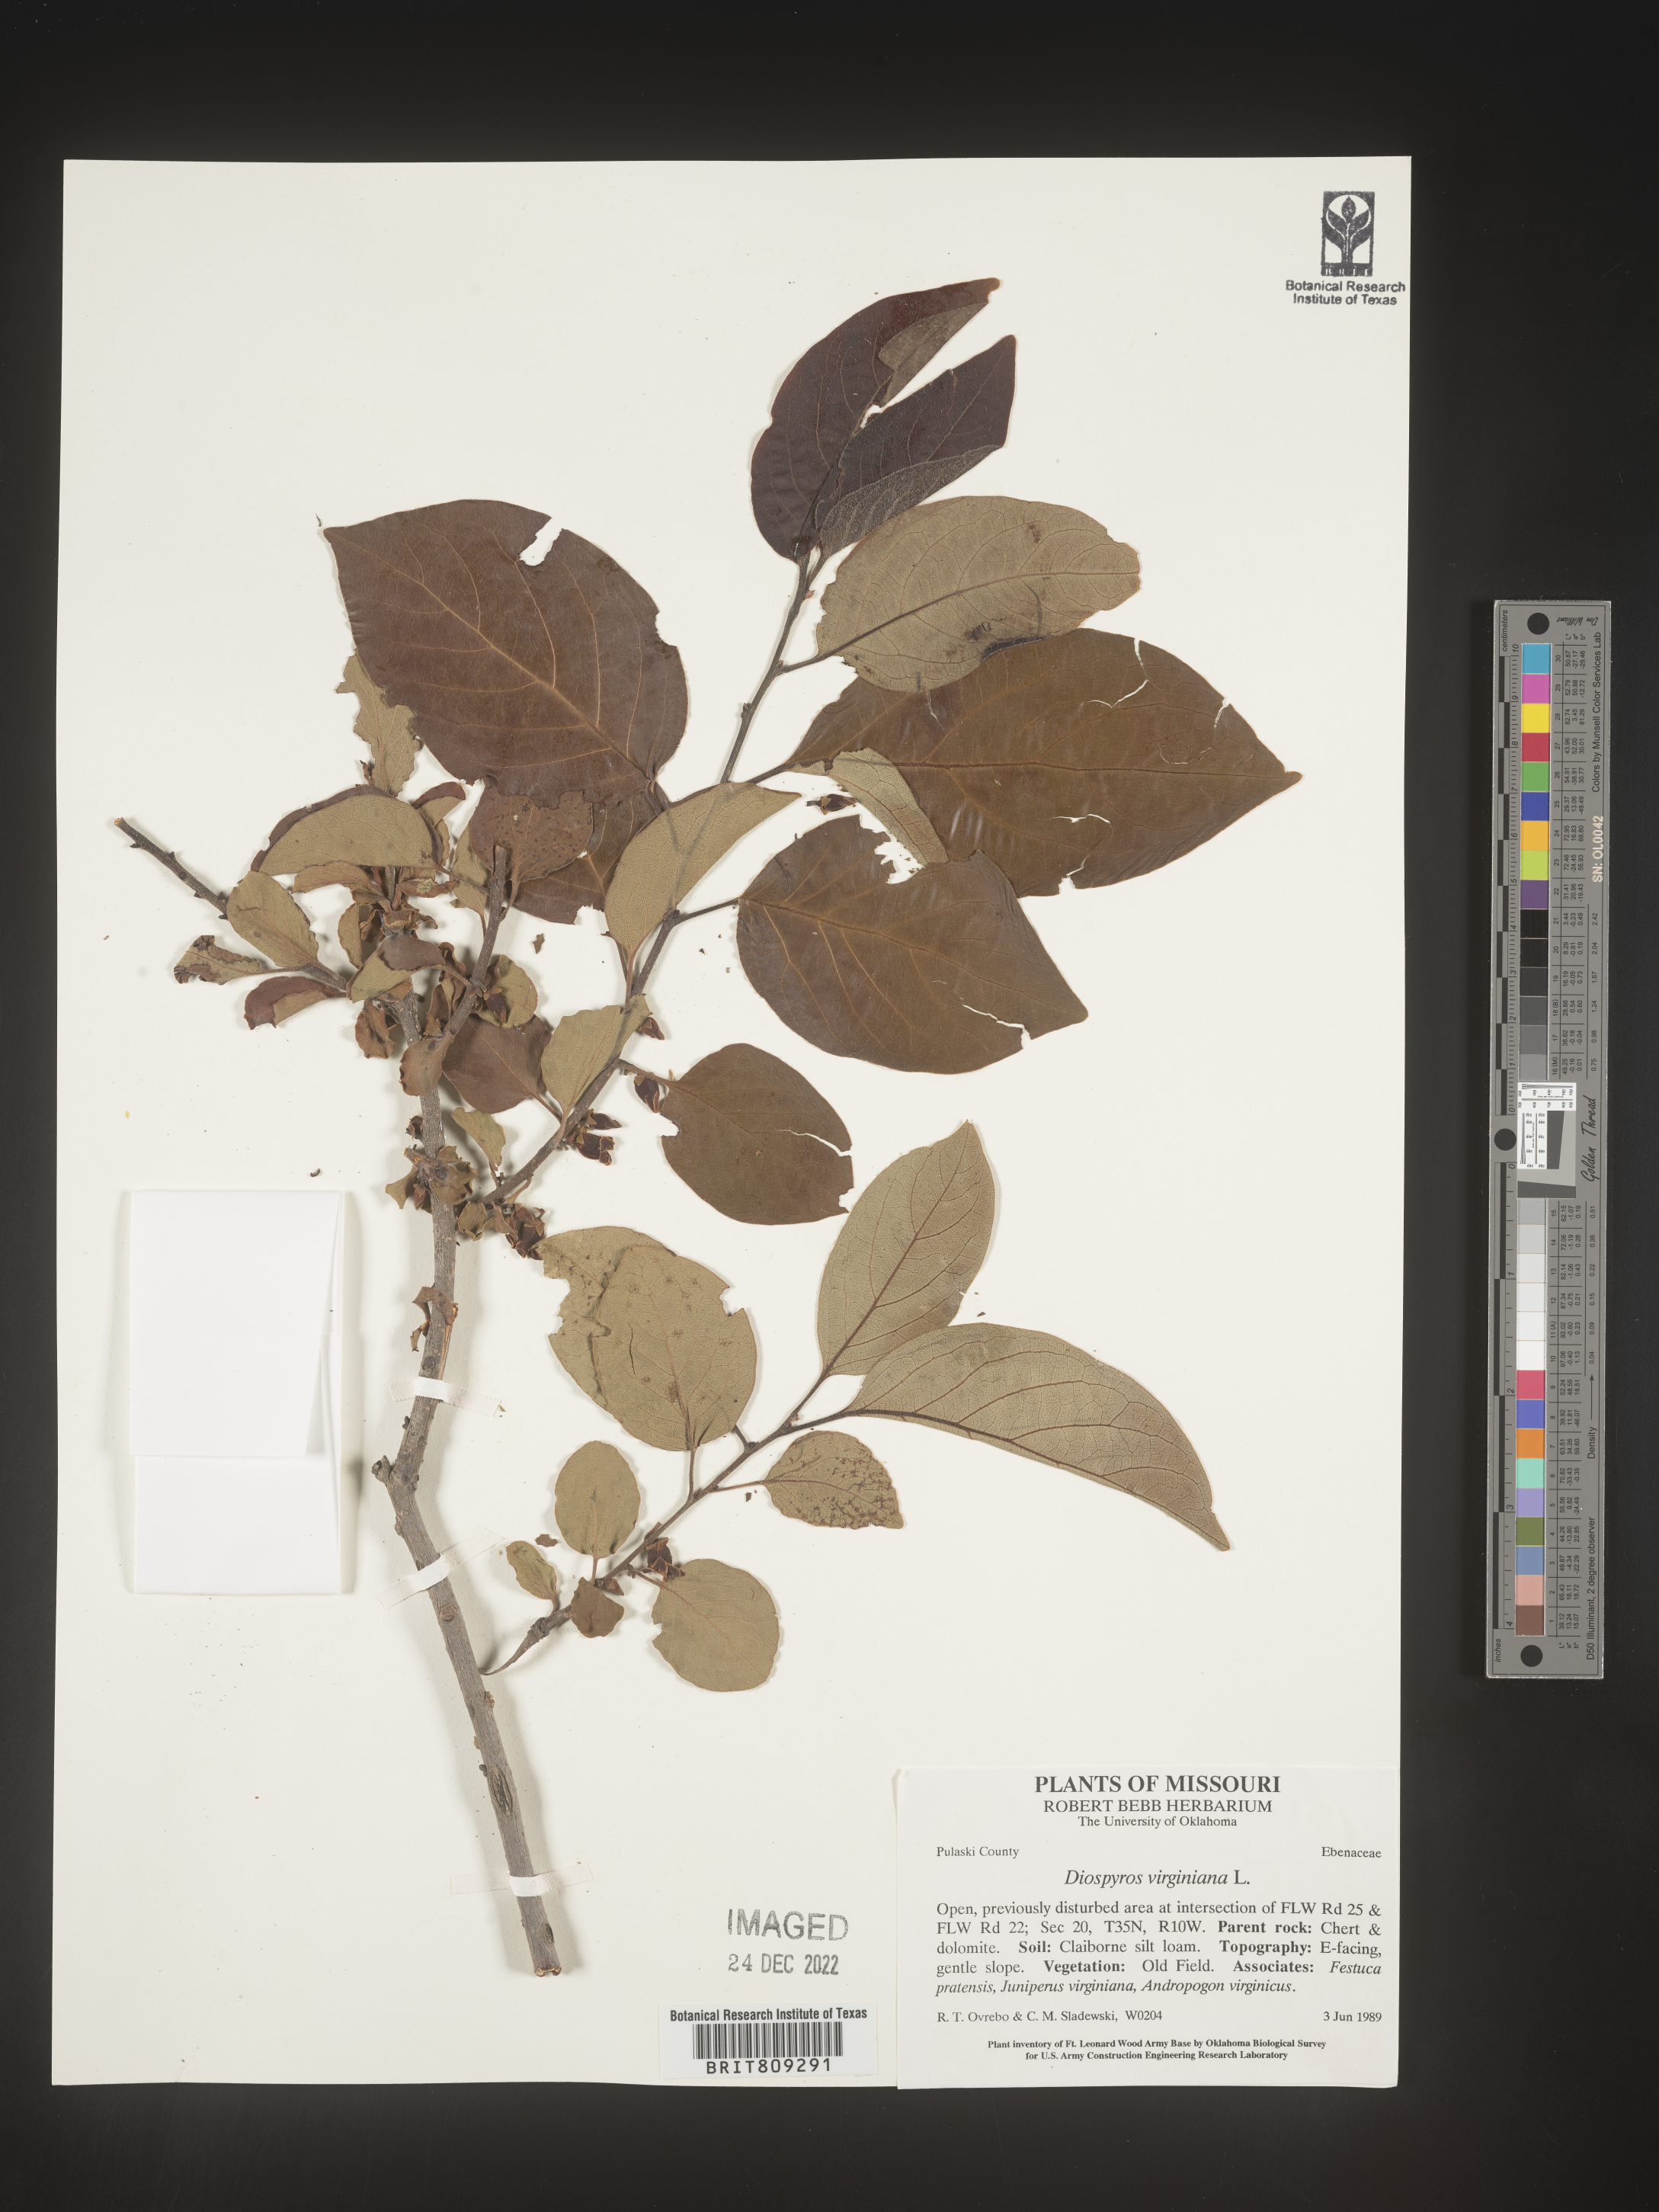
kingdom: Plantae
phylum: Tracheophyta
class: Magnoliopsida
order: Ericales
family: Ebenaceae
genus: Diospyros
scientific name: Diospyros virginiana
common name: Persimmon
